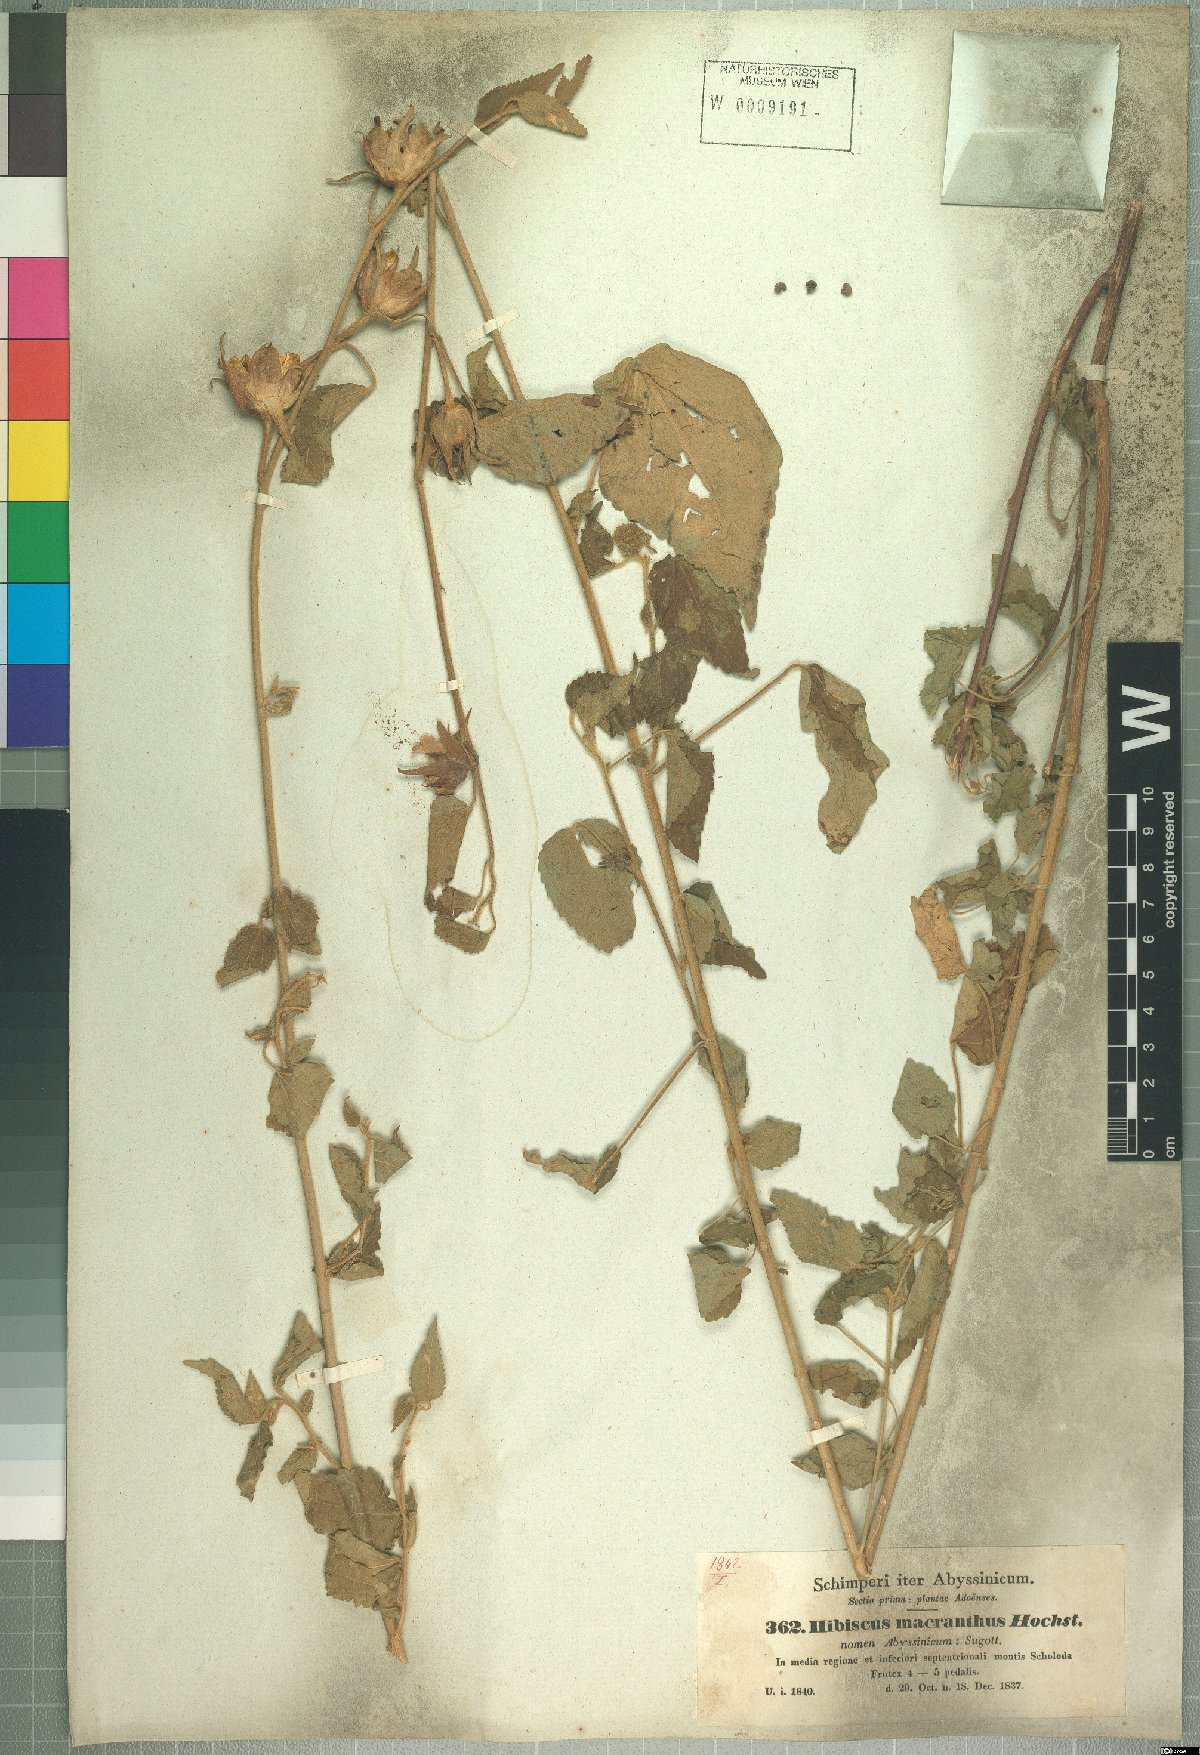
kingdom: Plantae
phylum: Tracheophyta
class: Magnoliopsida
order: Malvales
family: Malvaceae
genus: Hibiscus
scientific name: Hibiscus macranthus
